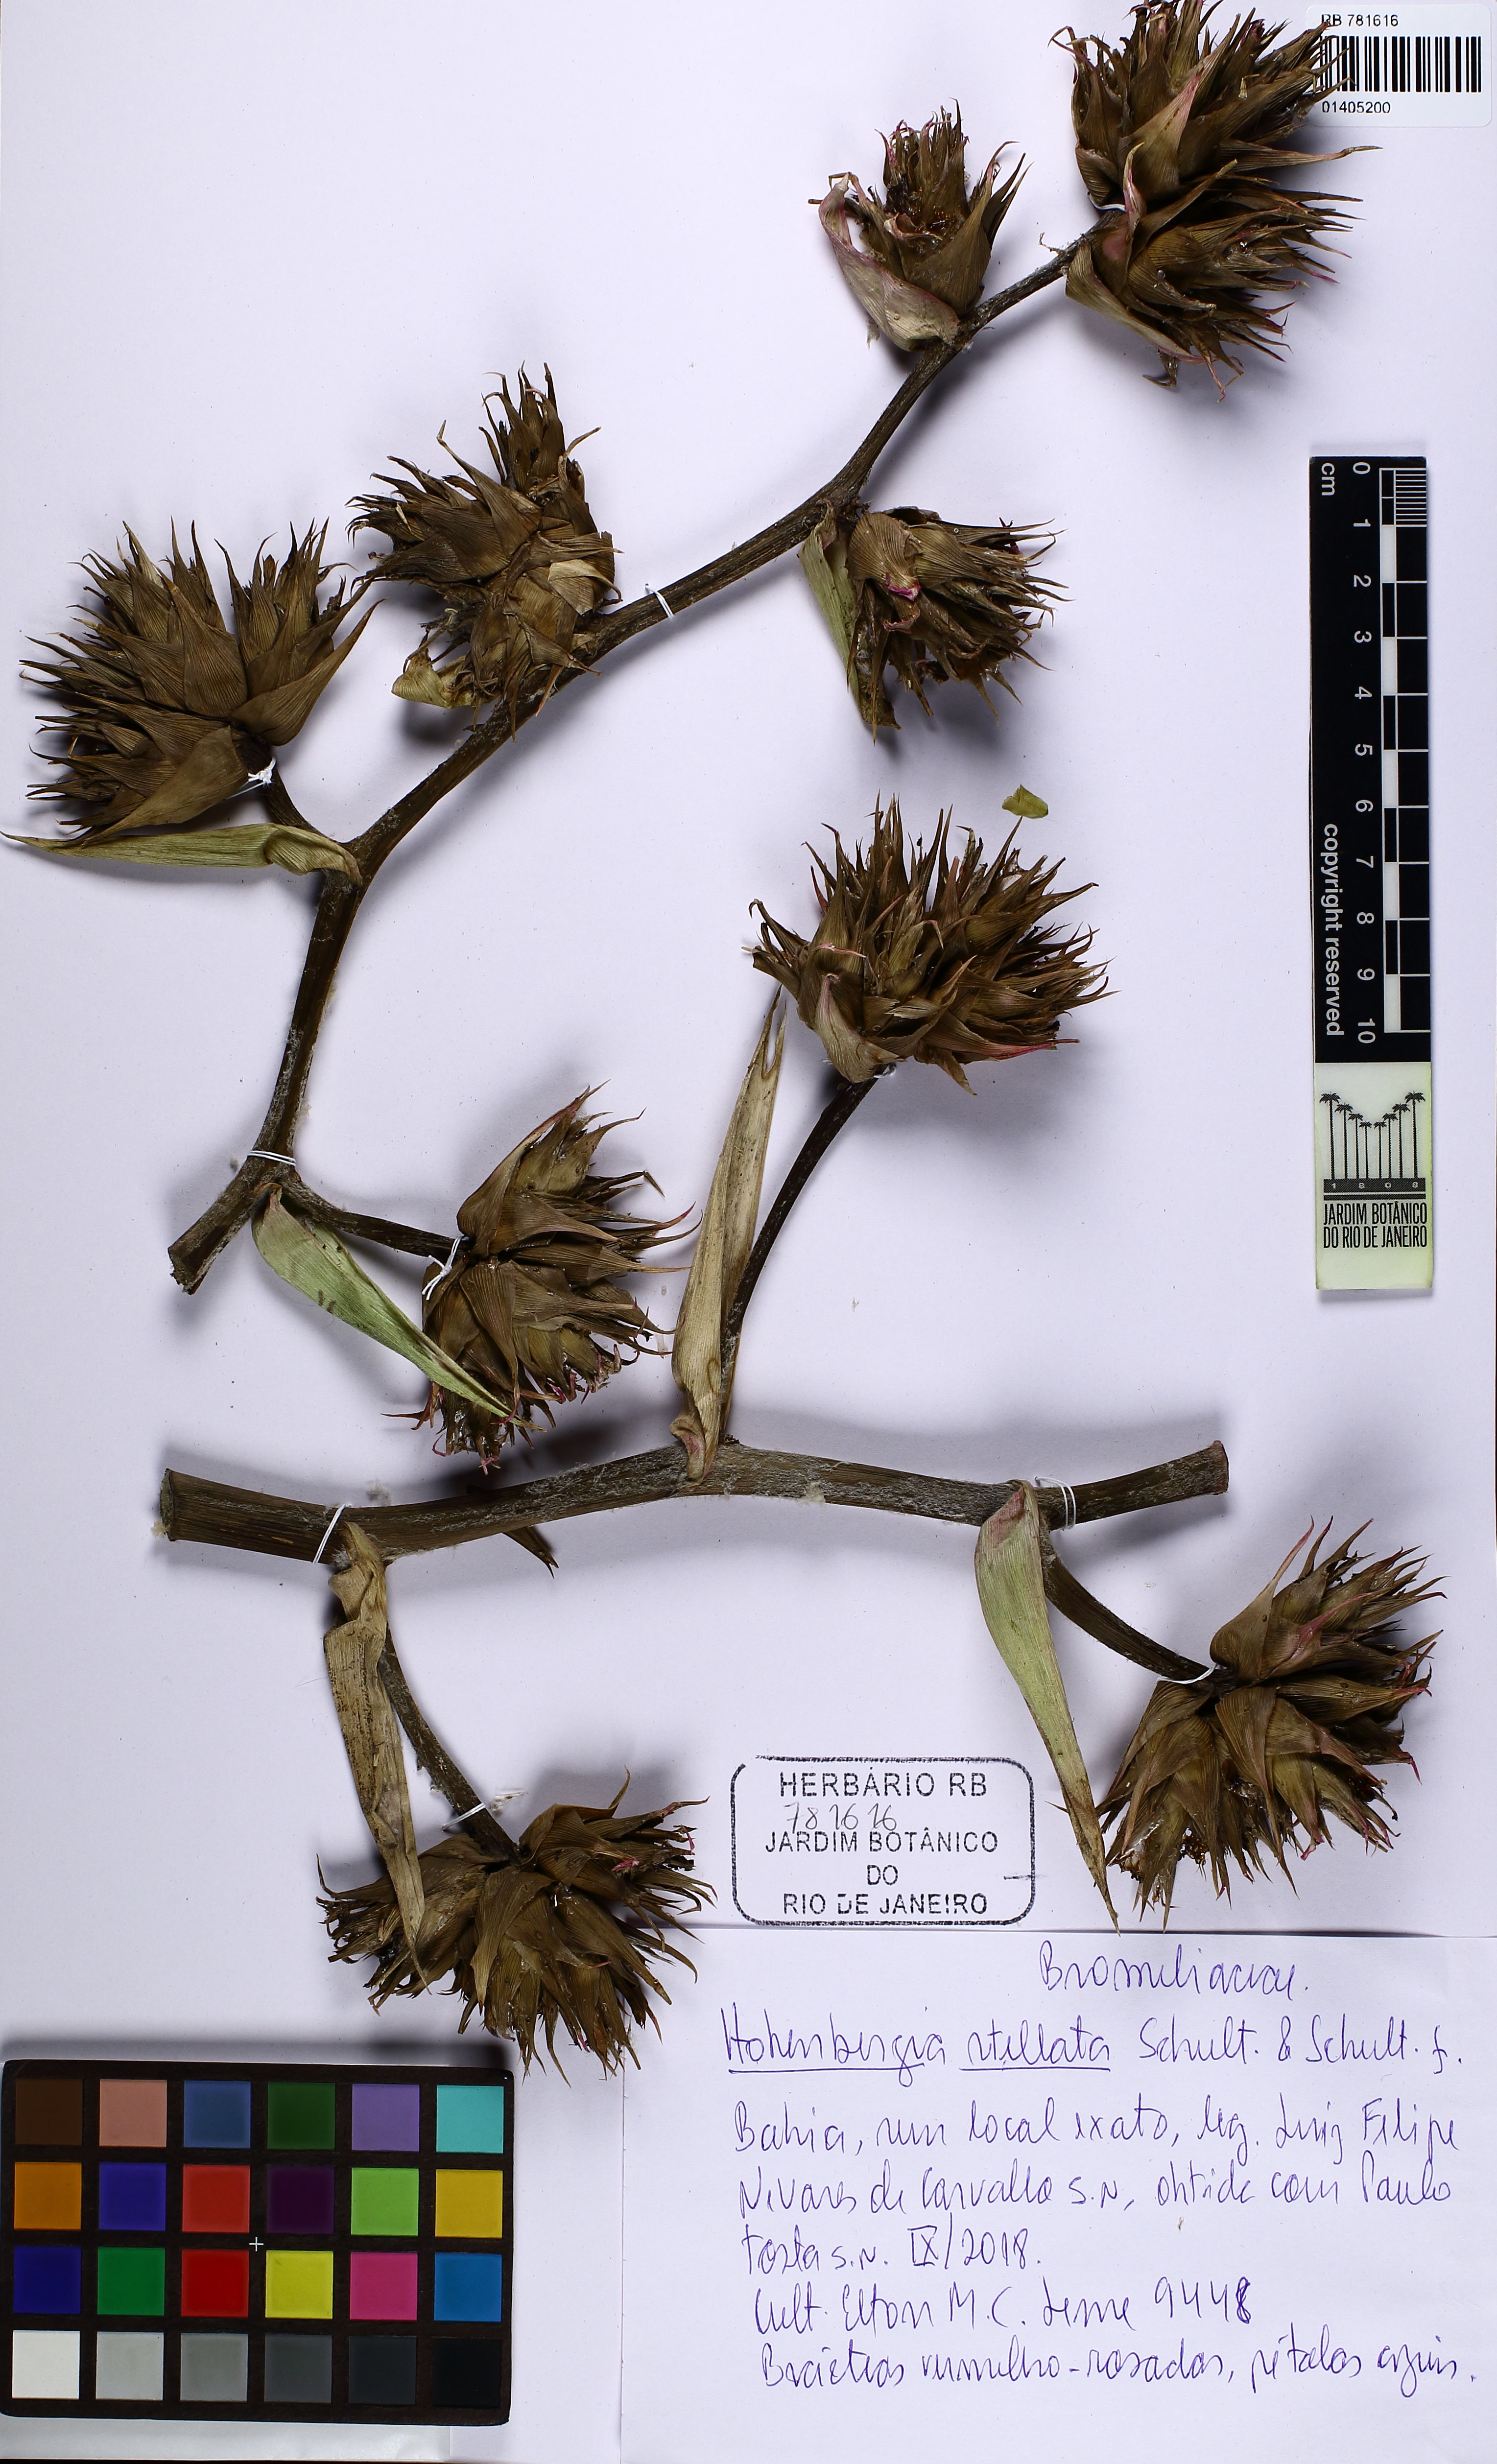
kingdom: Plantae
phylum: Tracheophyta
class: Liliopsida
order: Poales
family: Bromeliaceae
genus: Hohenbergia
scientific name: Hohenbergia stellata
